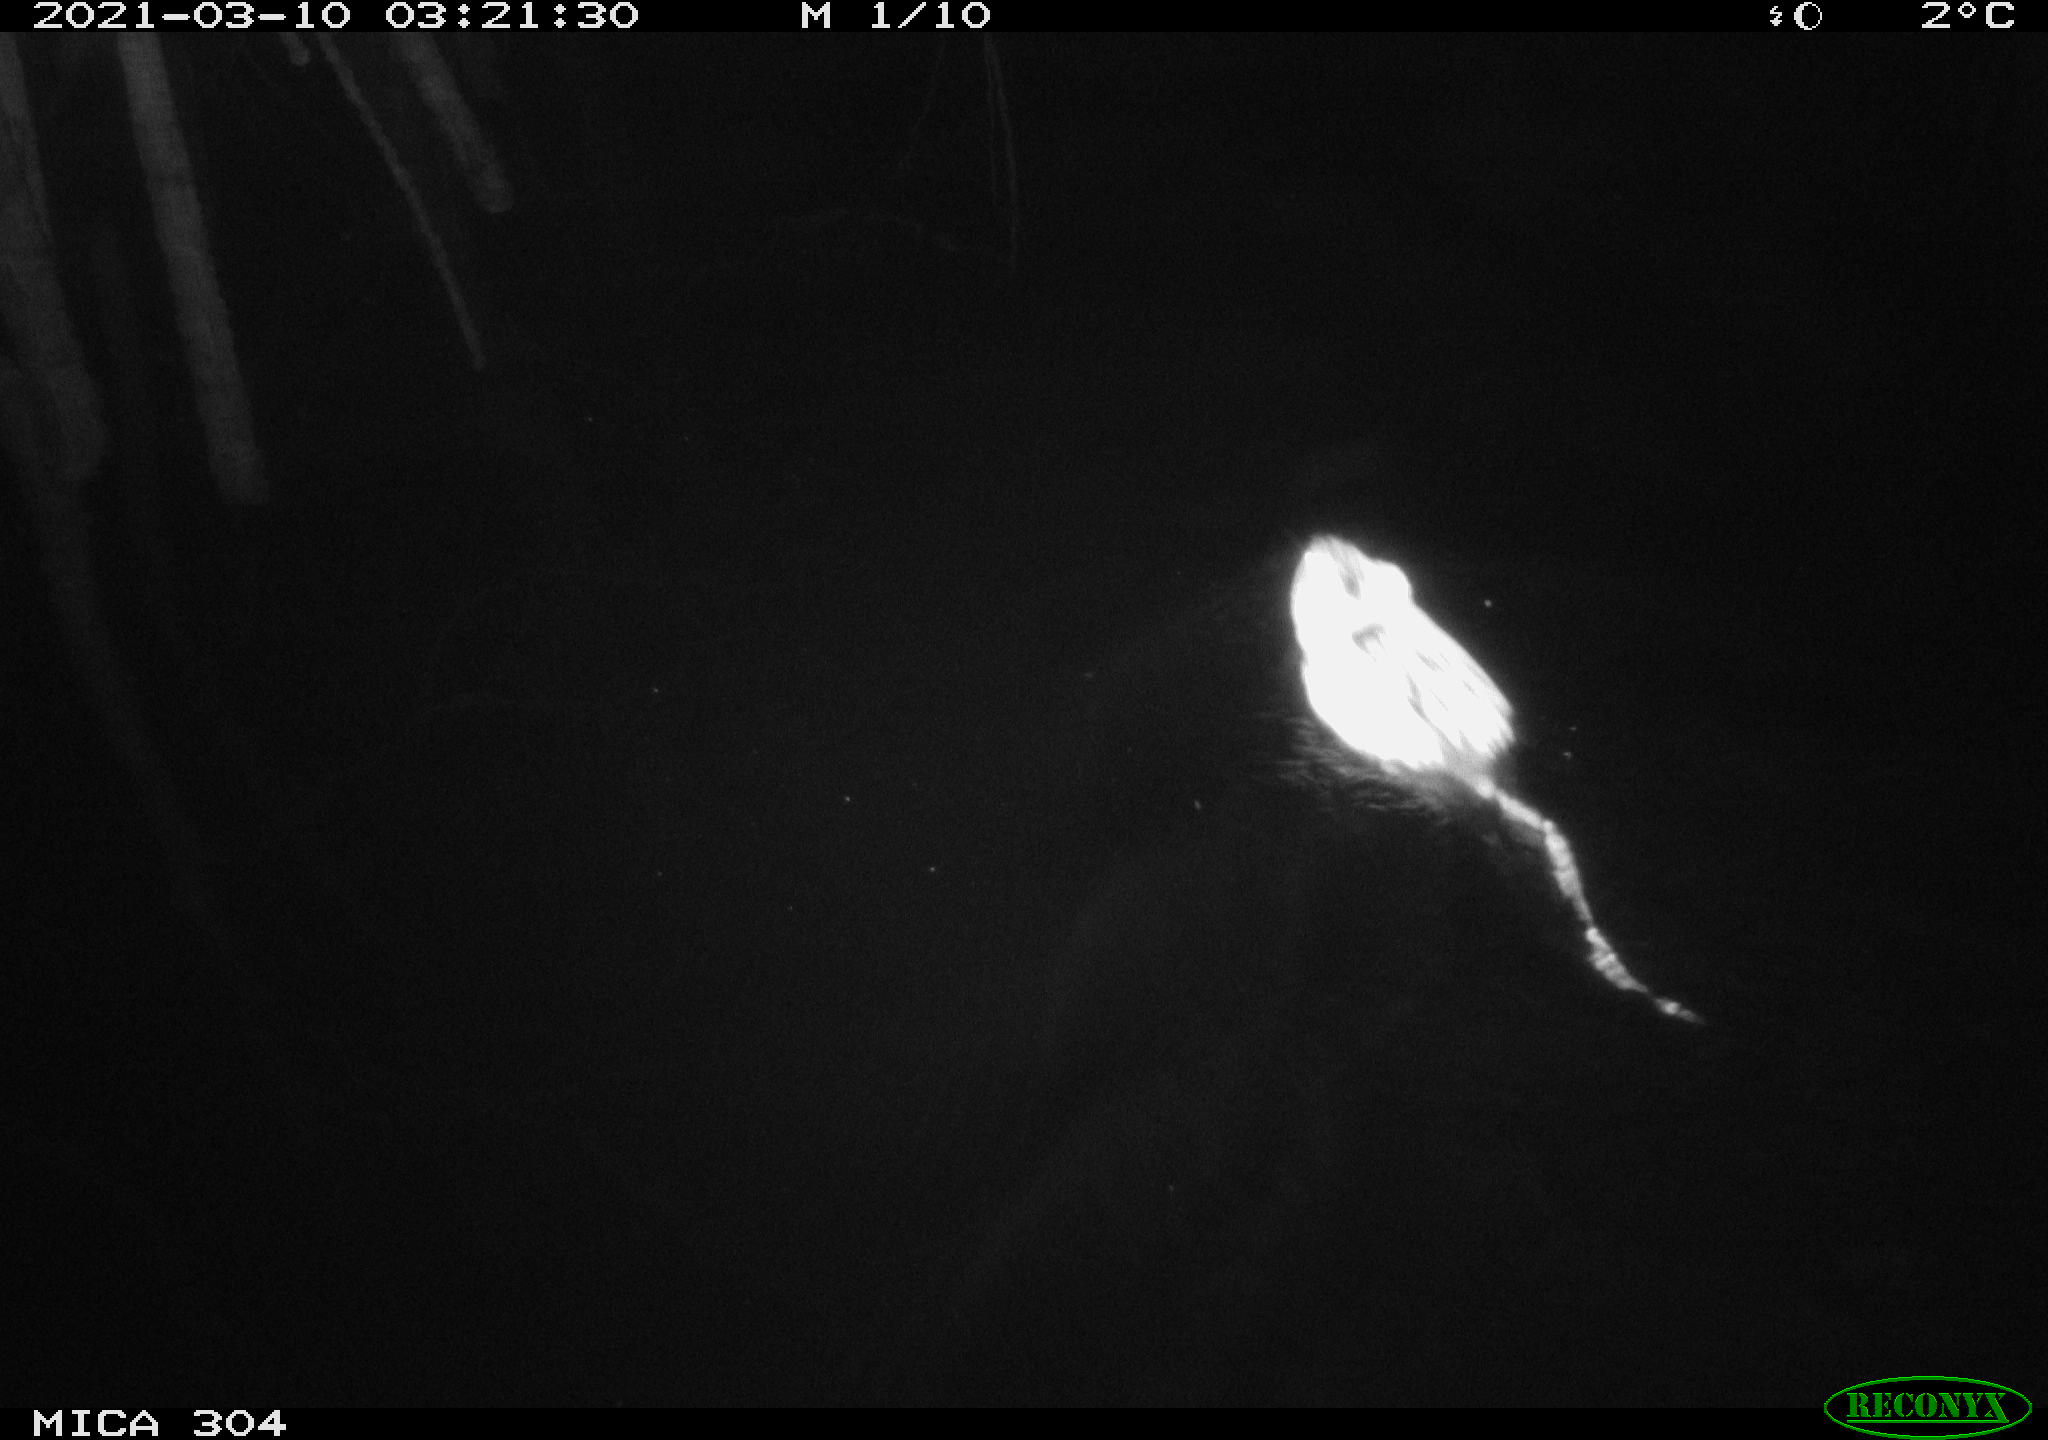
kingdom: Animalia
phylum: Chordata
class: Mammalia
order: Rodentia
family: Cricetidae
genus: Ondatra
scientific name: Ondatra zibethicus
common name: Muskrat
